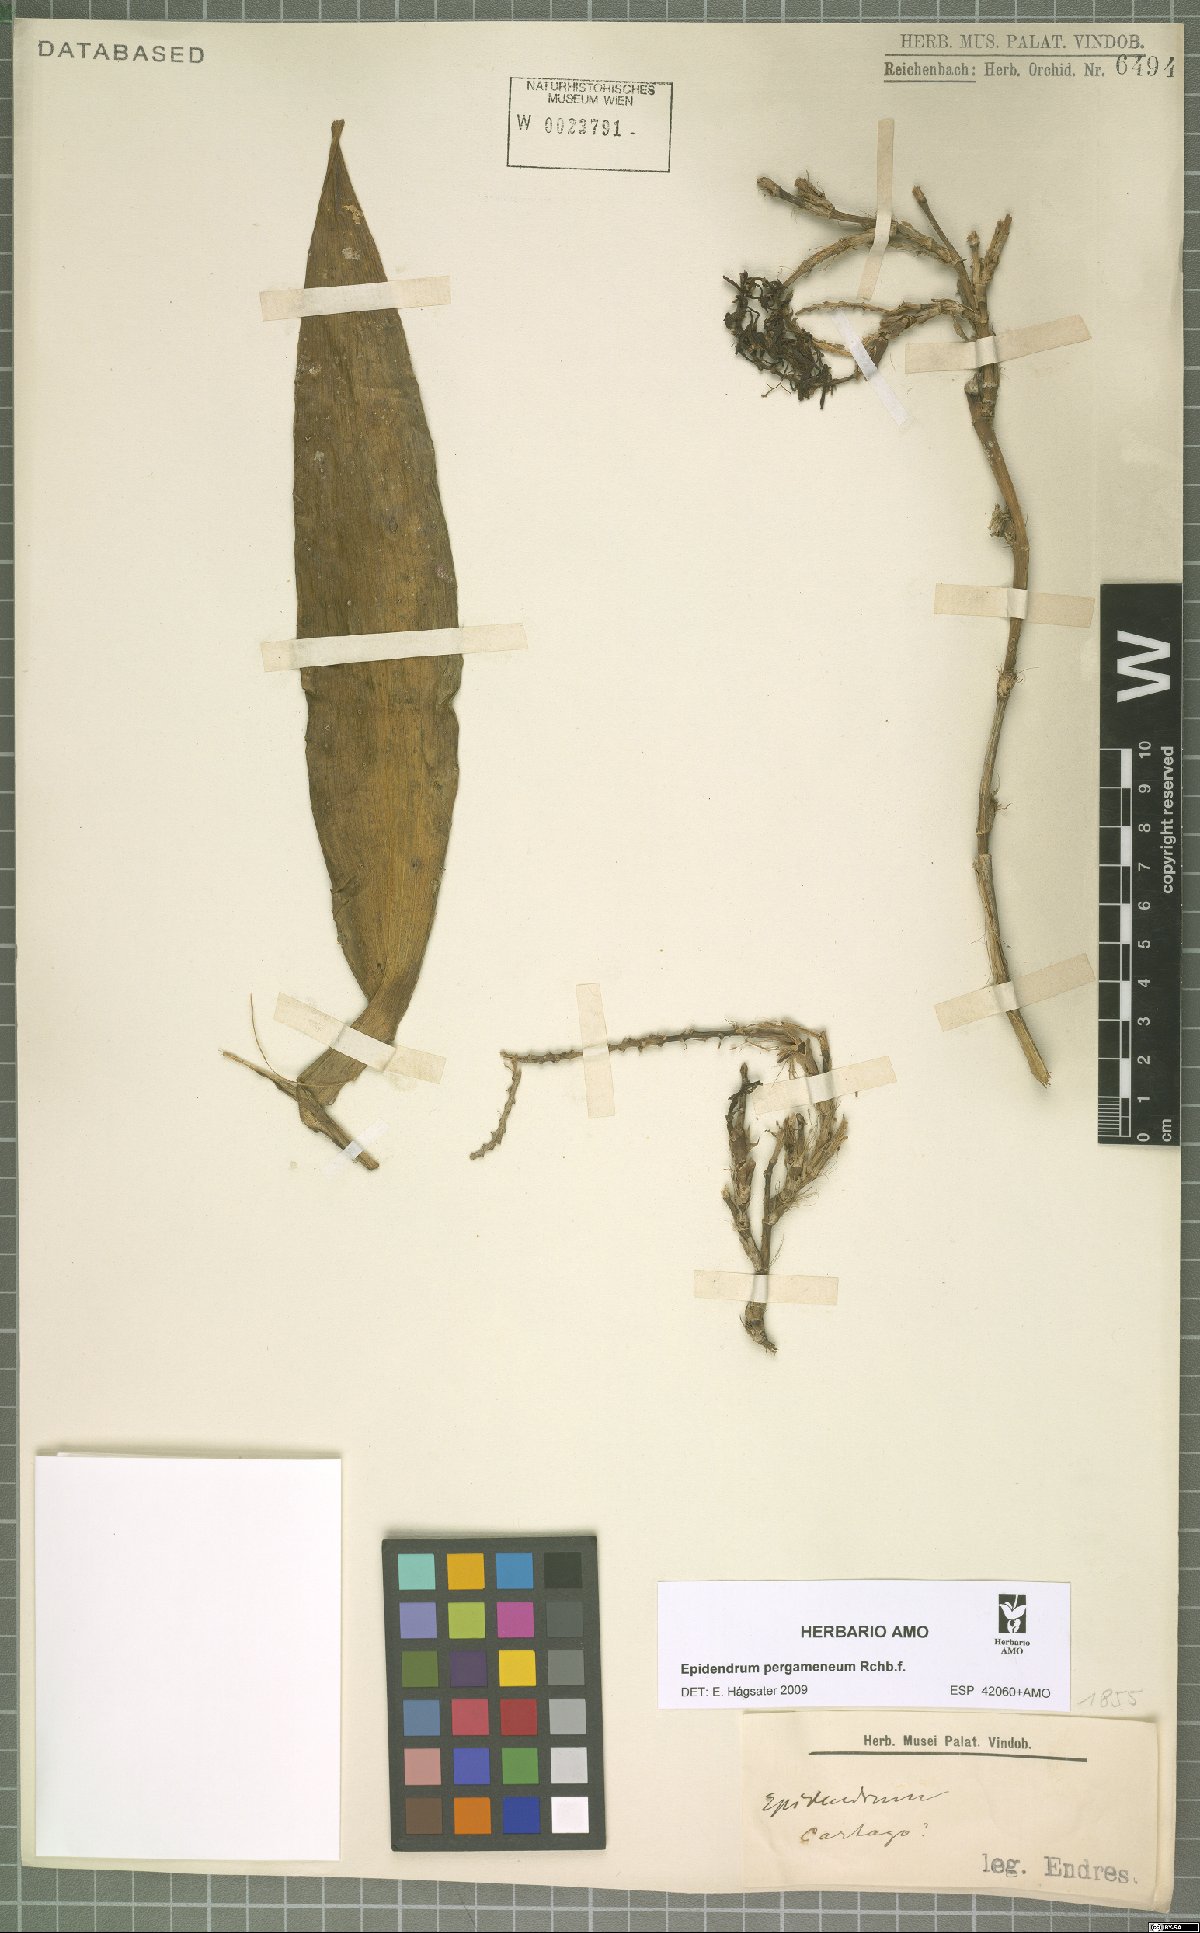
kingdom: Plantae
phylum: Tracheophyta
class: Liliopsida
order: Asparagales
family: Orchidaceae
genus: Epidendrum
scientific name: Epidendrum pergameneum
